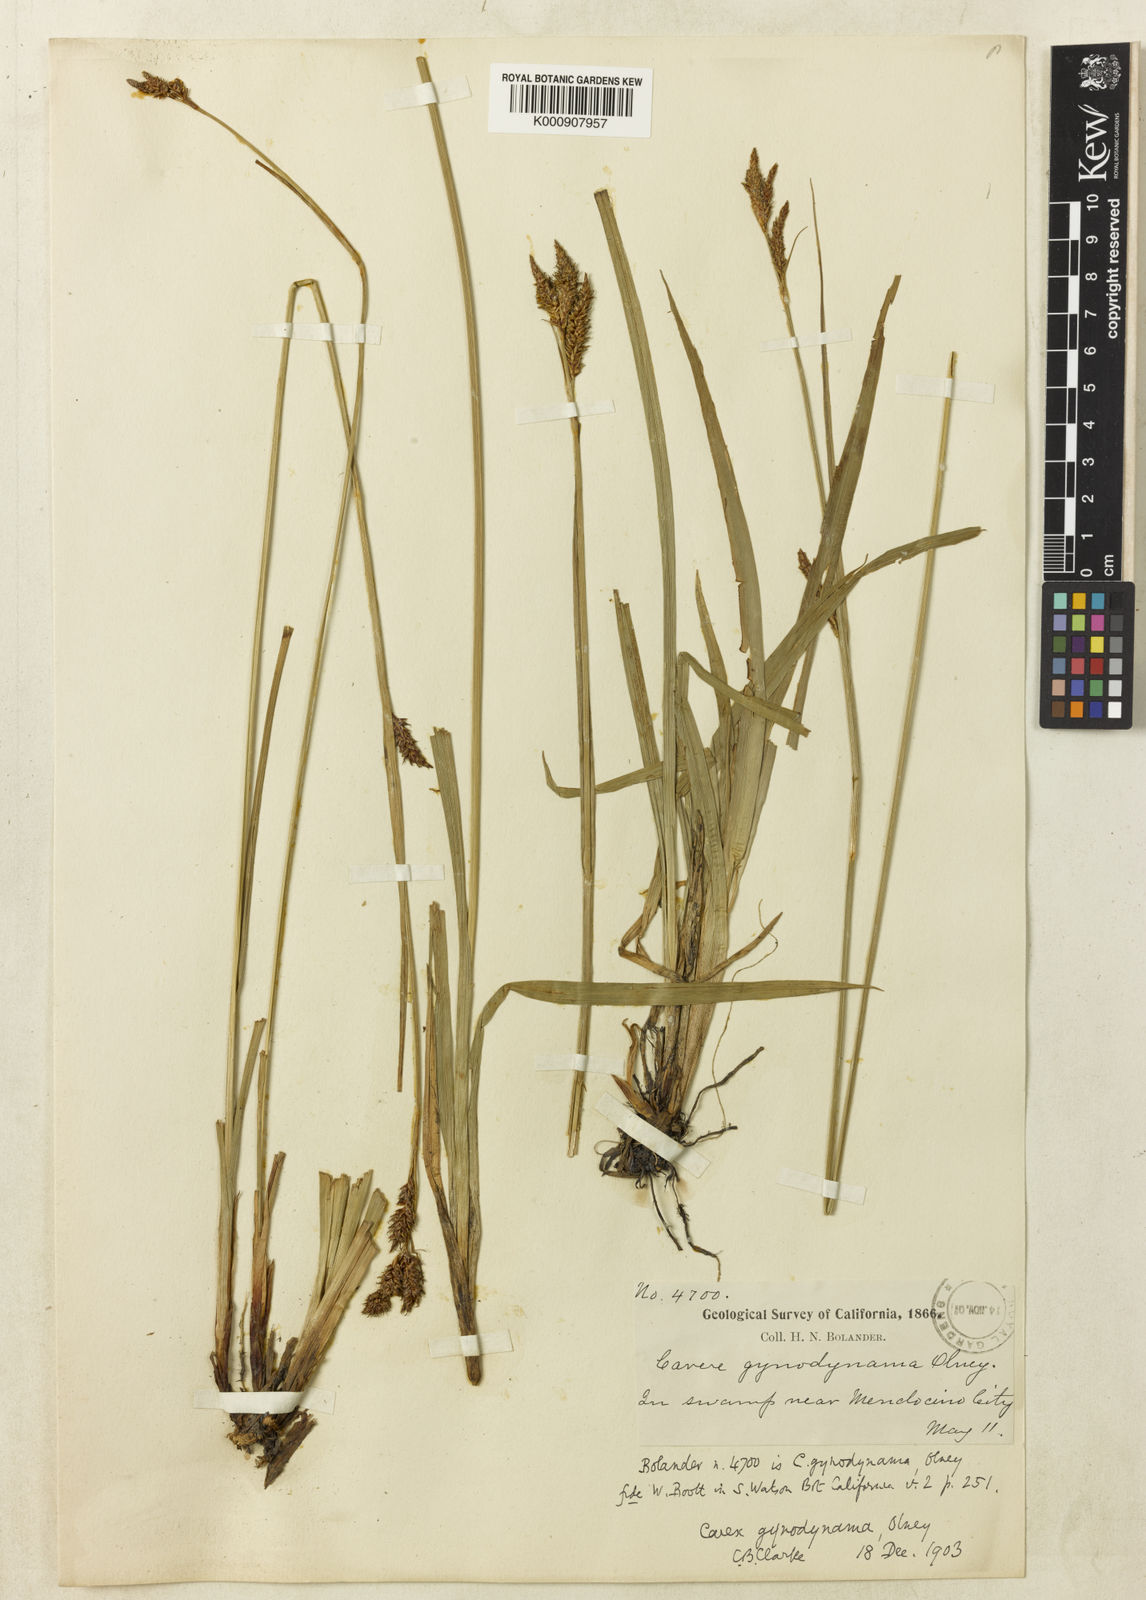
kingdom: Plantae
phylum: Tracheophyta
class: Liliopsida
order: Poales
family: Cyperaceae
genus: Carex
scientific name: Carex gynodynama
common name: Olney's hairy sedge
